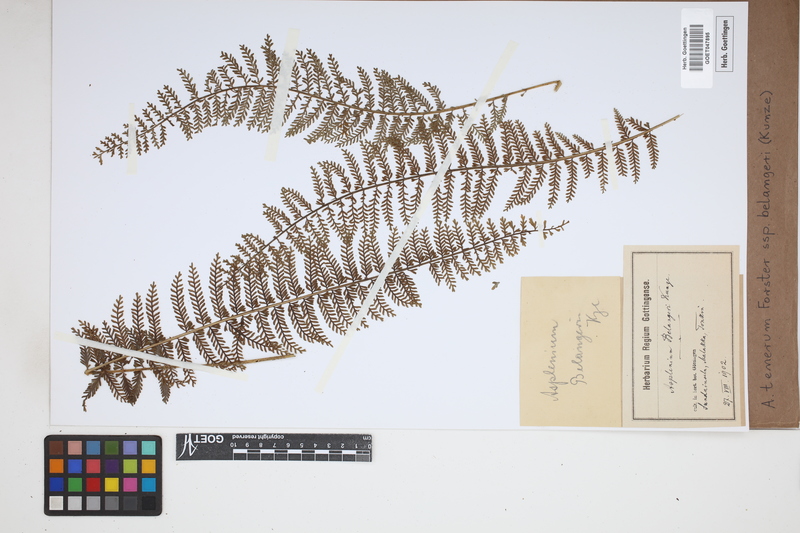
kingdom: Plantae
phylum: Tracheophyta
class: Polypodiopsida
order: Polypodiales
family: Aspleniaceae
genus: Asplenium
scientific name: Asplenium tenerum
